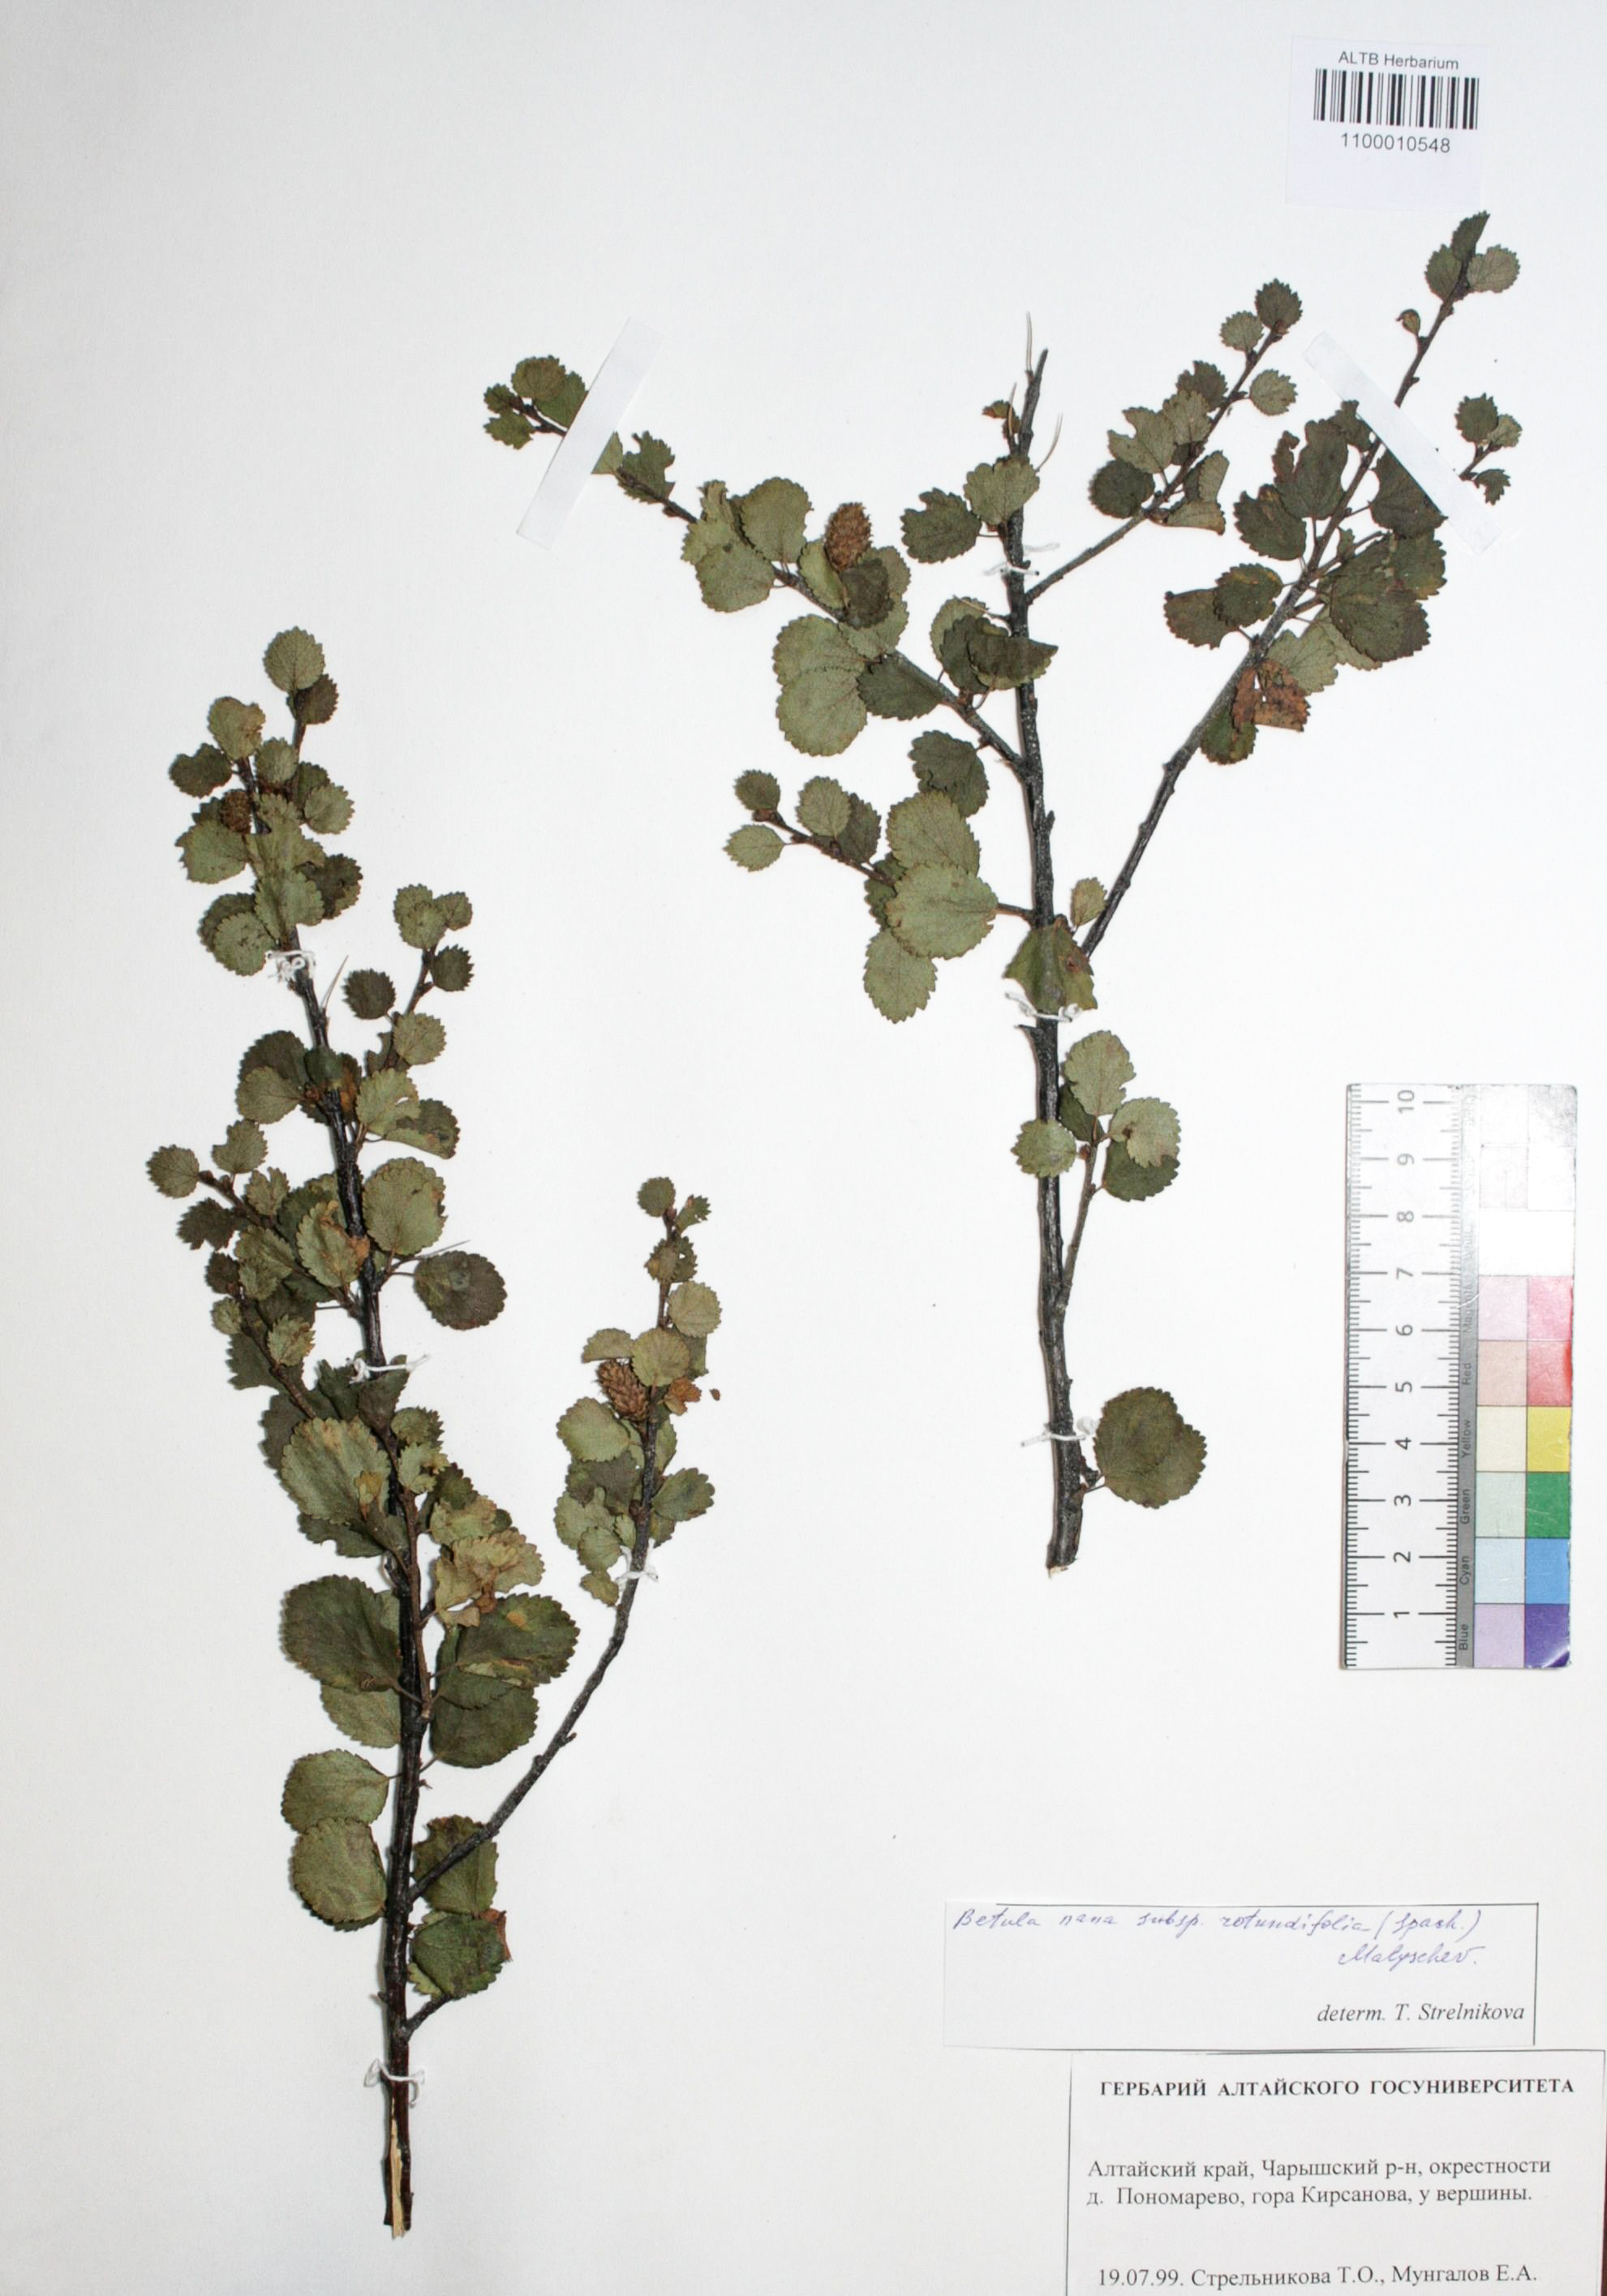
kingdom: Plantae
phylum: Tracheophyta
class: Magnoliopsida
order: Fagales
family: Betulaceae
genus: Betula
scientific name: Betula nana
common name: Arctic dwarf birch
